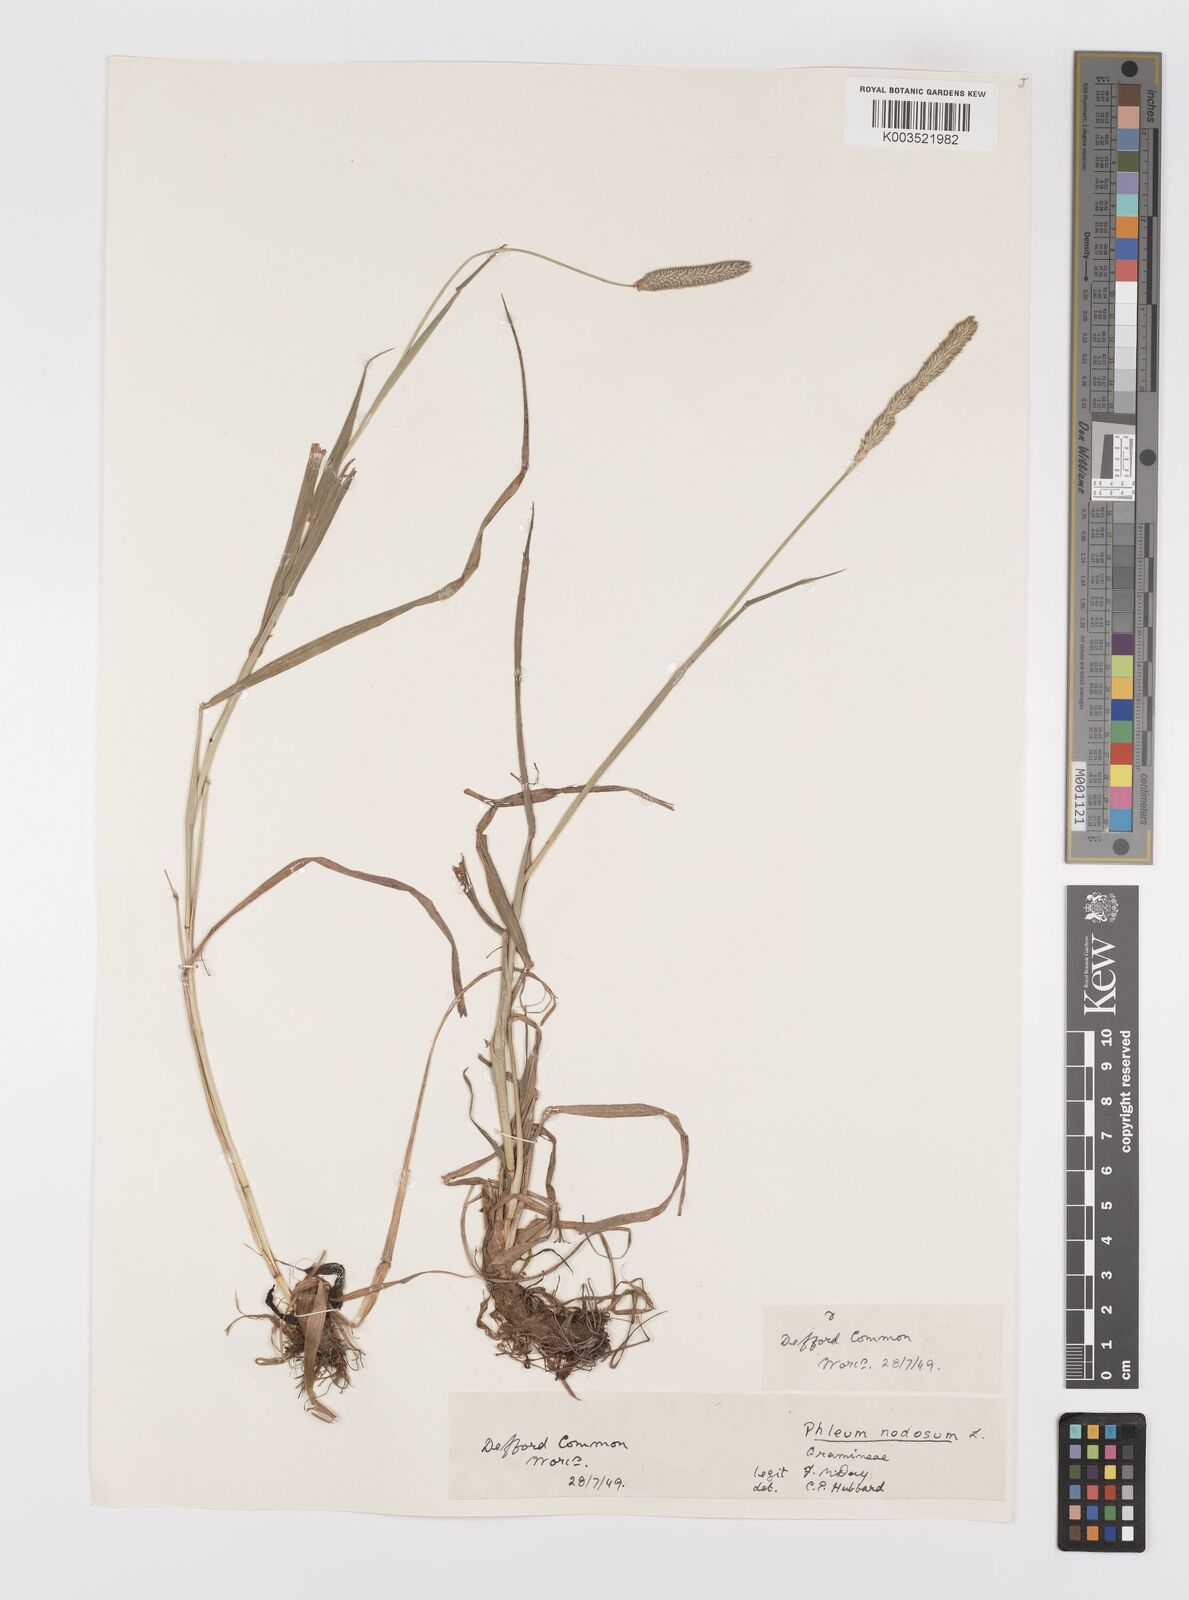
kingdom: Plantae
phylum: Tracheophyta
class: Liliopsida
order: Poales
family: Poaceae
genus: Phleum
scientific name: Phleum bertolonii
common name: Smaller cat's-tail
